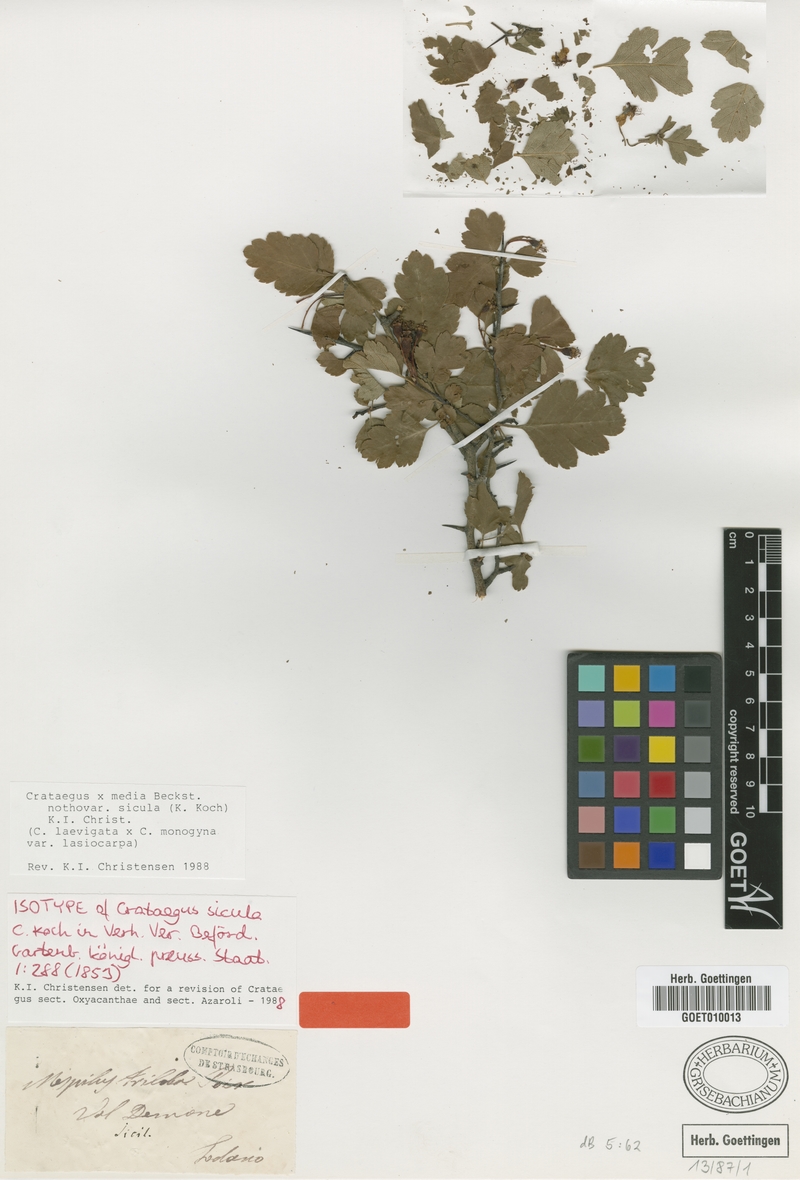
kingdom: Plantae
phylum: Tracheophyta
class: Magnoliopsida
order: Rosales
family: Rosaceae
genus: Crataegus
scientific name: Crataegus media
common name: Intermediate hawthorn
